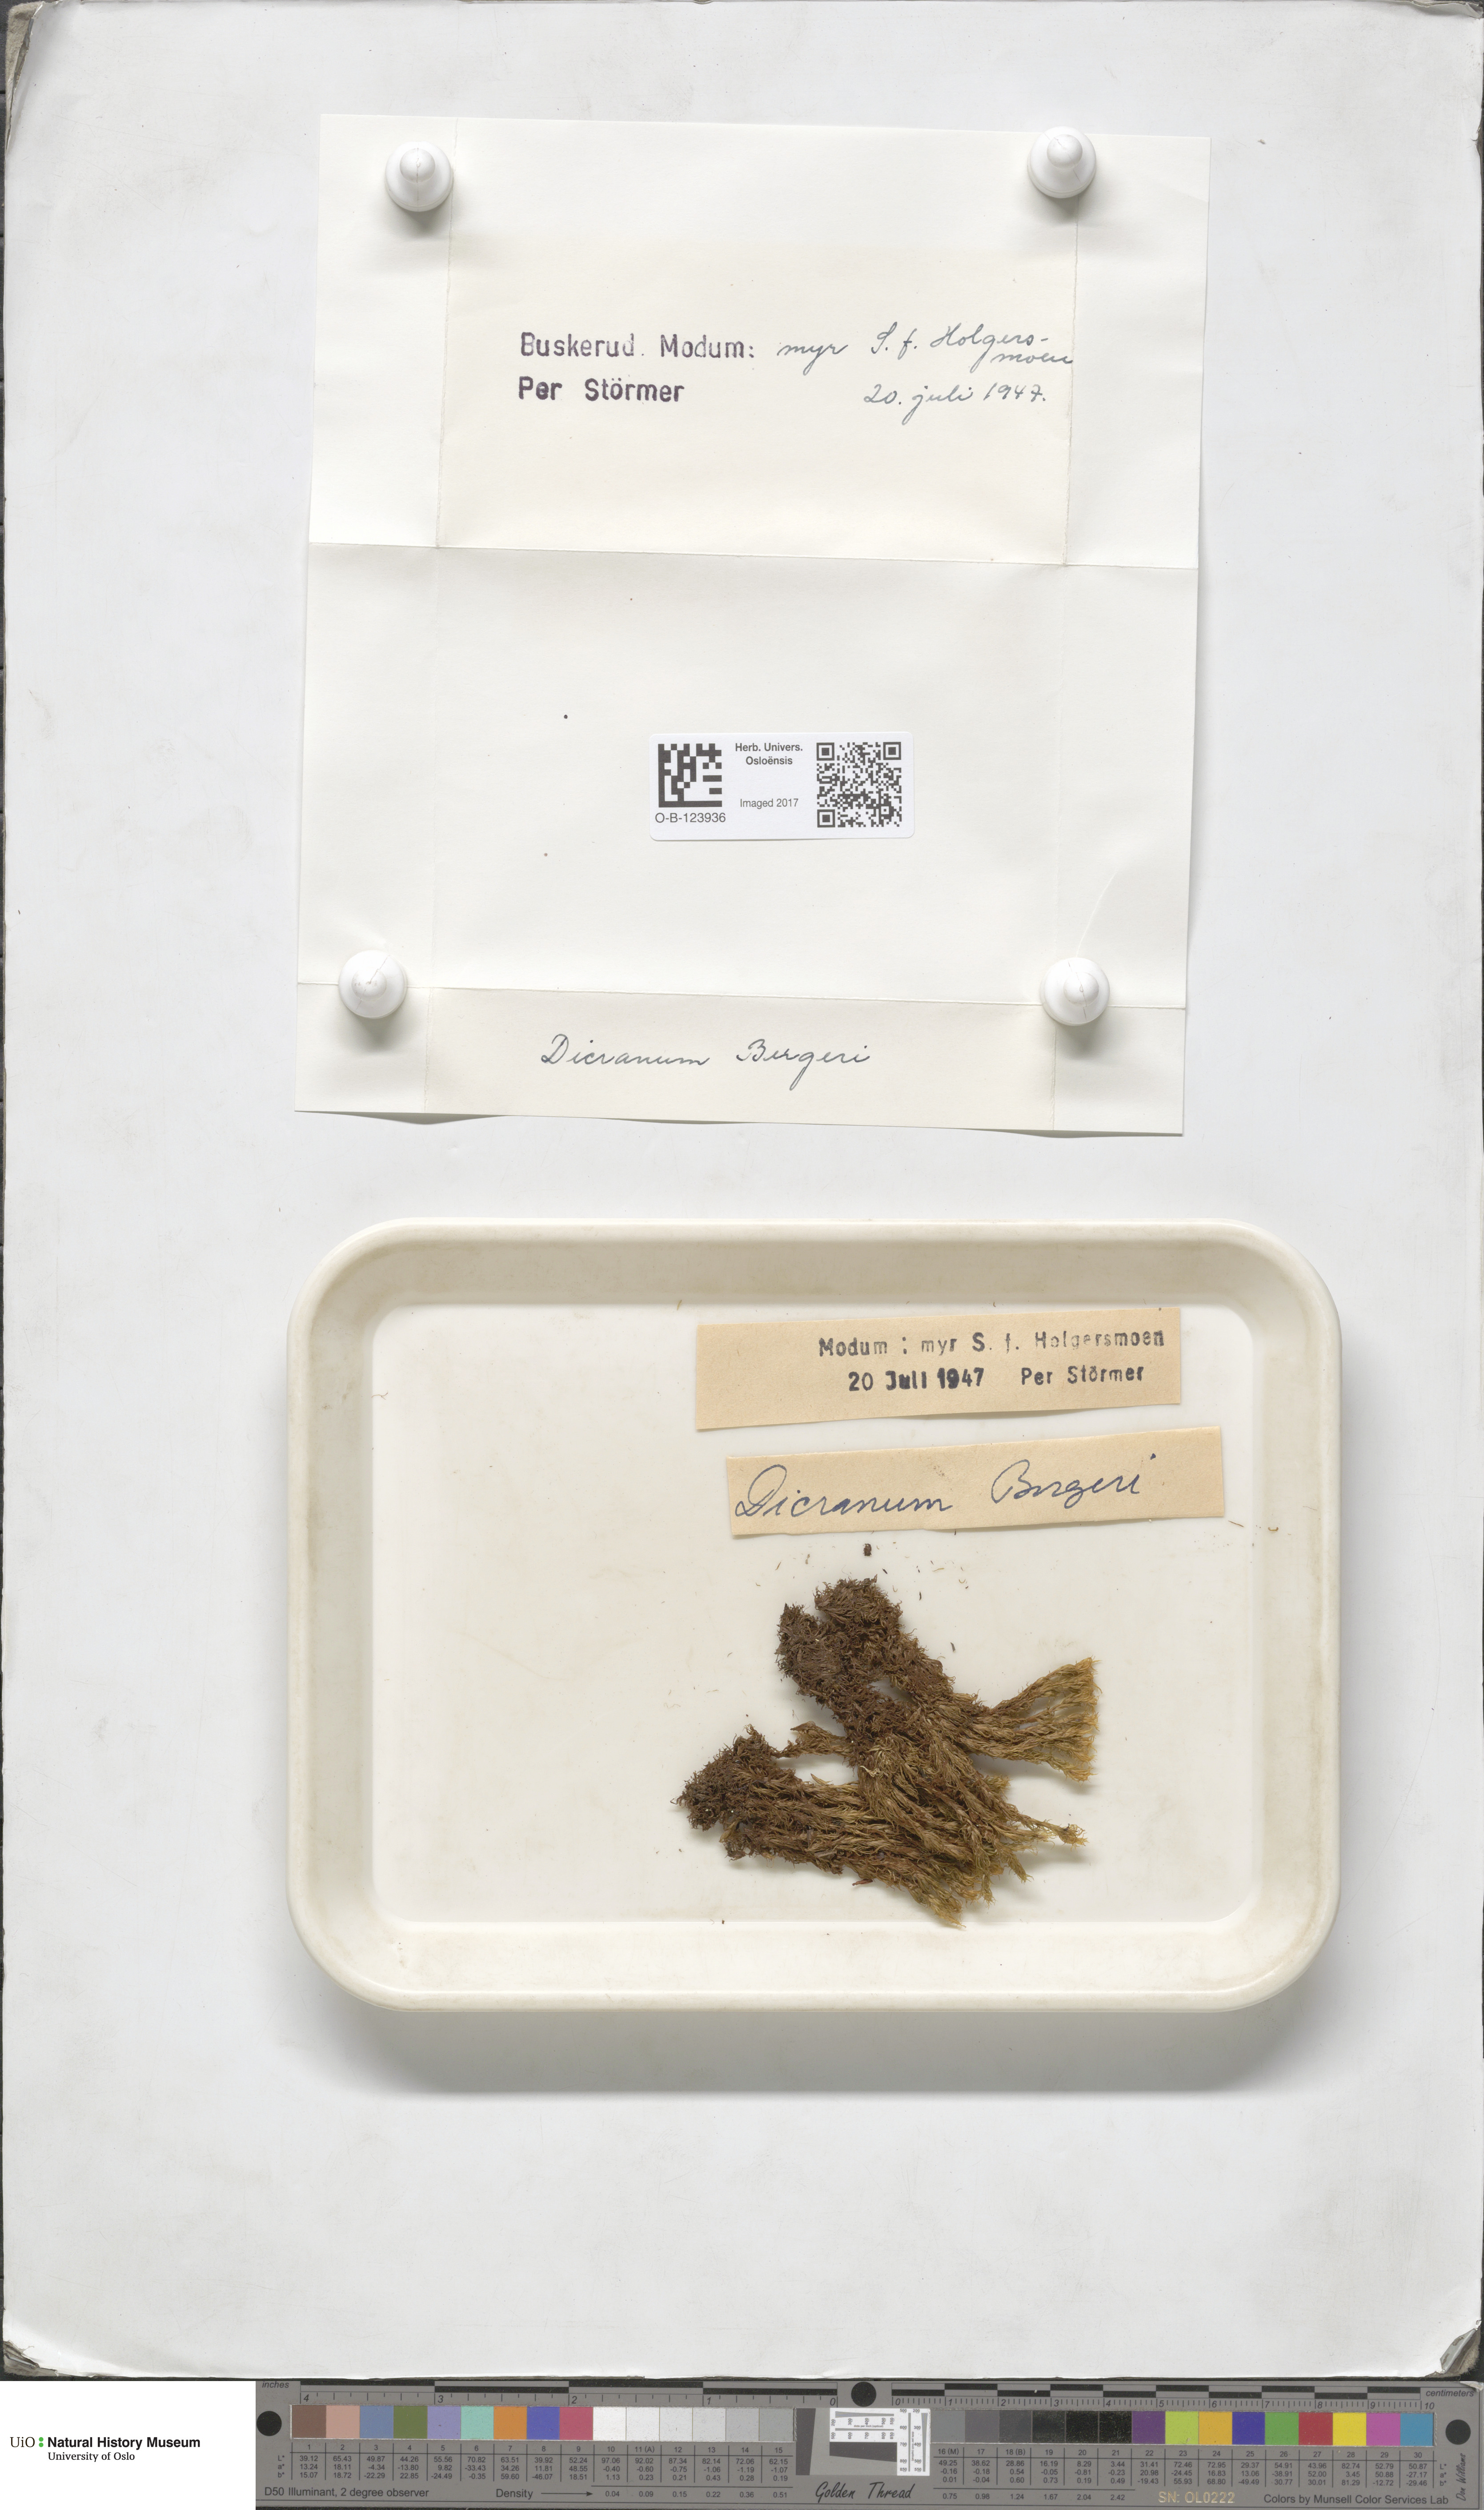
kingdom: Plantae
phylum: Bryophyta
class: Bryopsida
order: Dicranales
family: Dicranaceae
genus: Dicranum
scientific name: Dicranum undulatum
